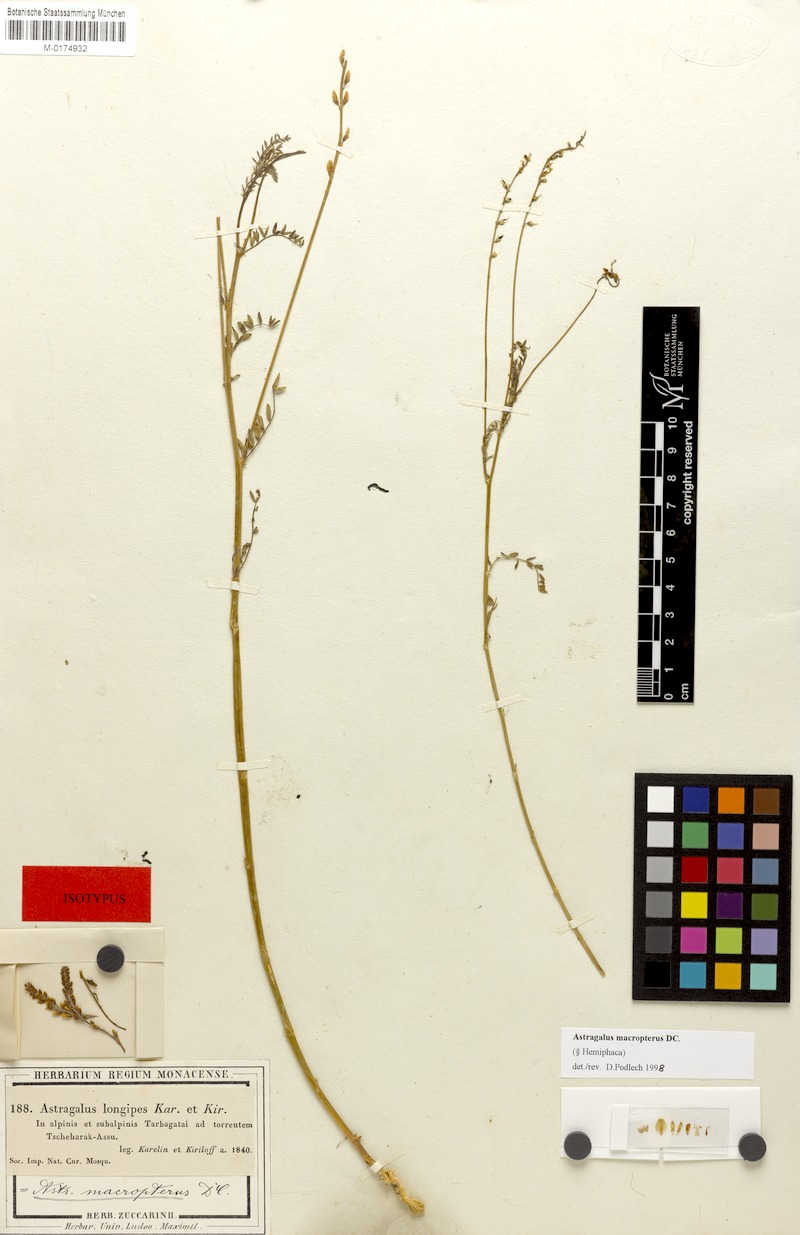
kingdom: Plantae
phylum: Tracheophyta
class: Magnoliopsida
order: Fabales
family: Fabaceae
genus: Astragalus
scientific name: Astragalus leptostachys
